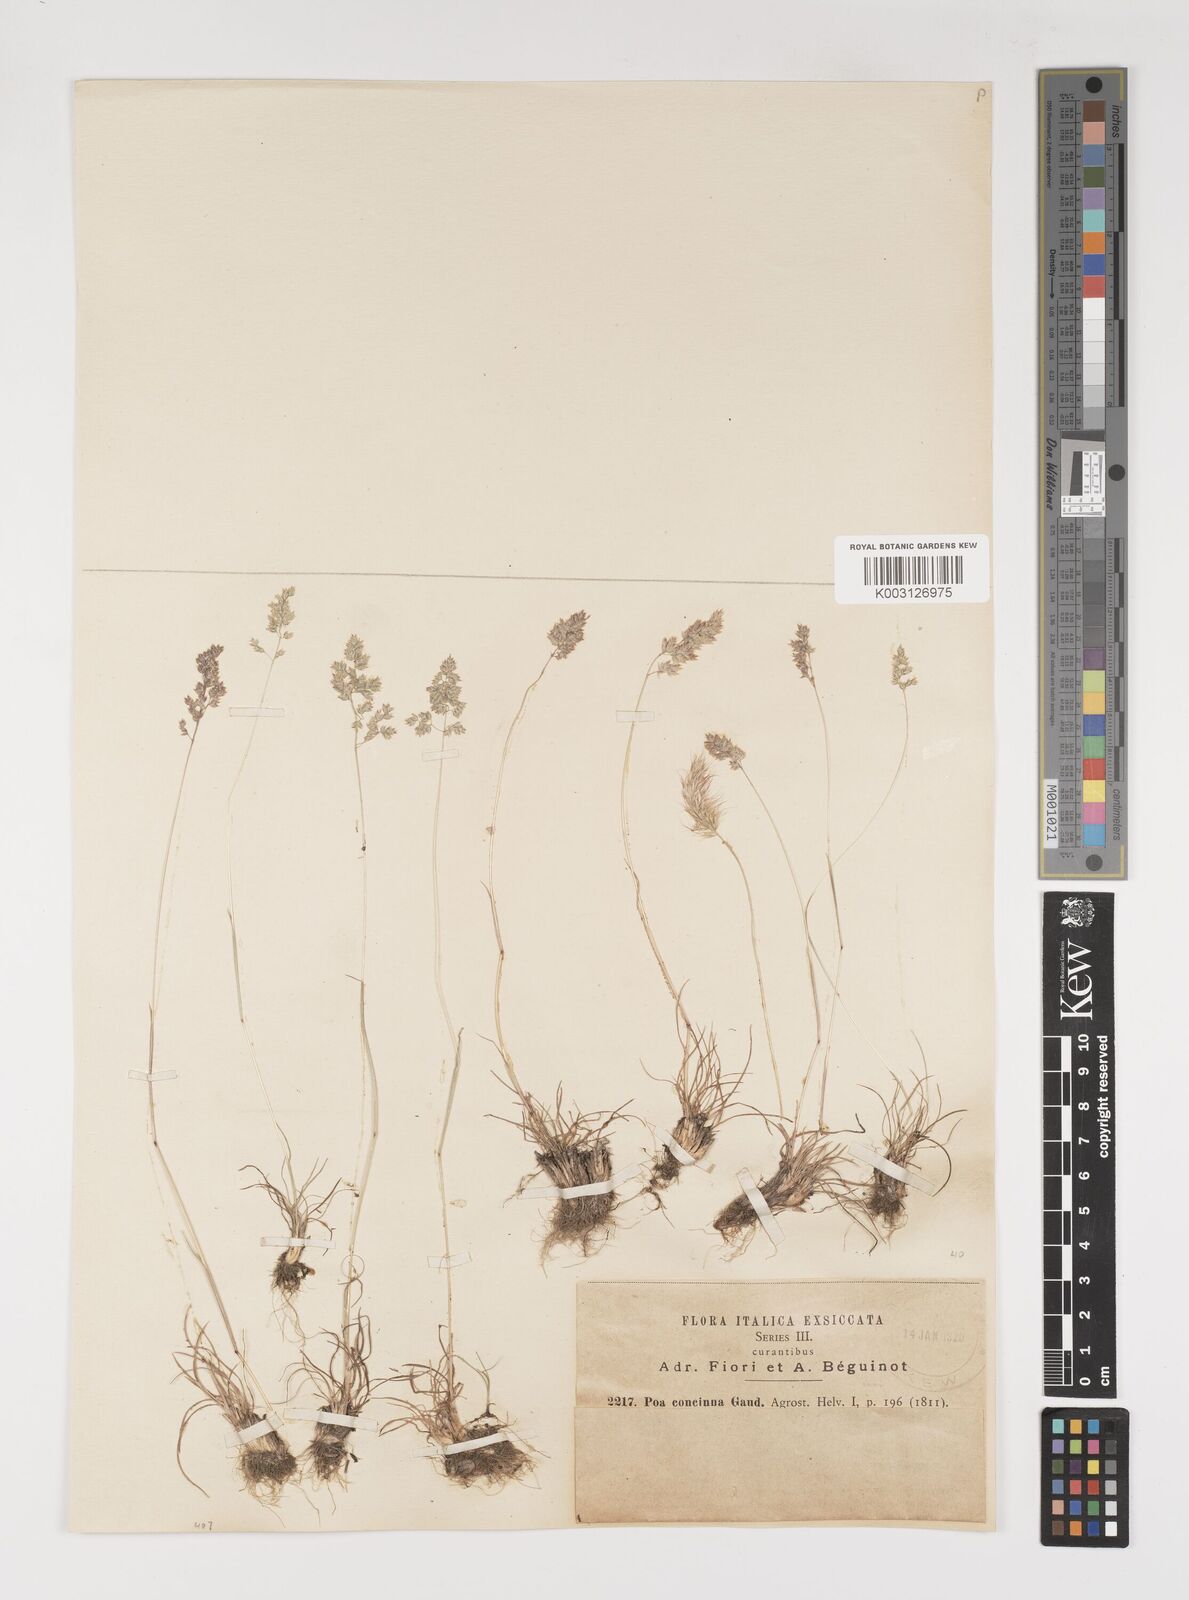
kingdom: Plantae
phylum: Tracheophyta
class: Liliopsida
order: Poales
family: Poaceae
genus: Poa
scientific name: Poa perconcinna
